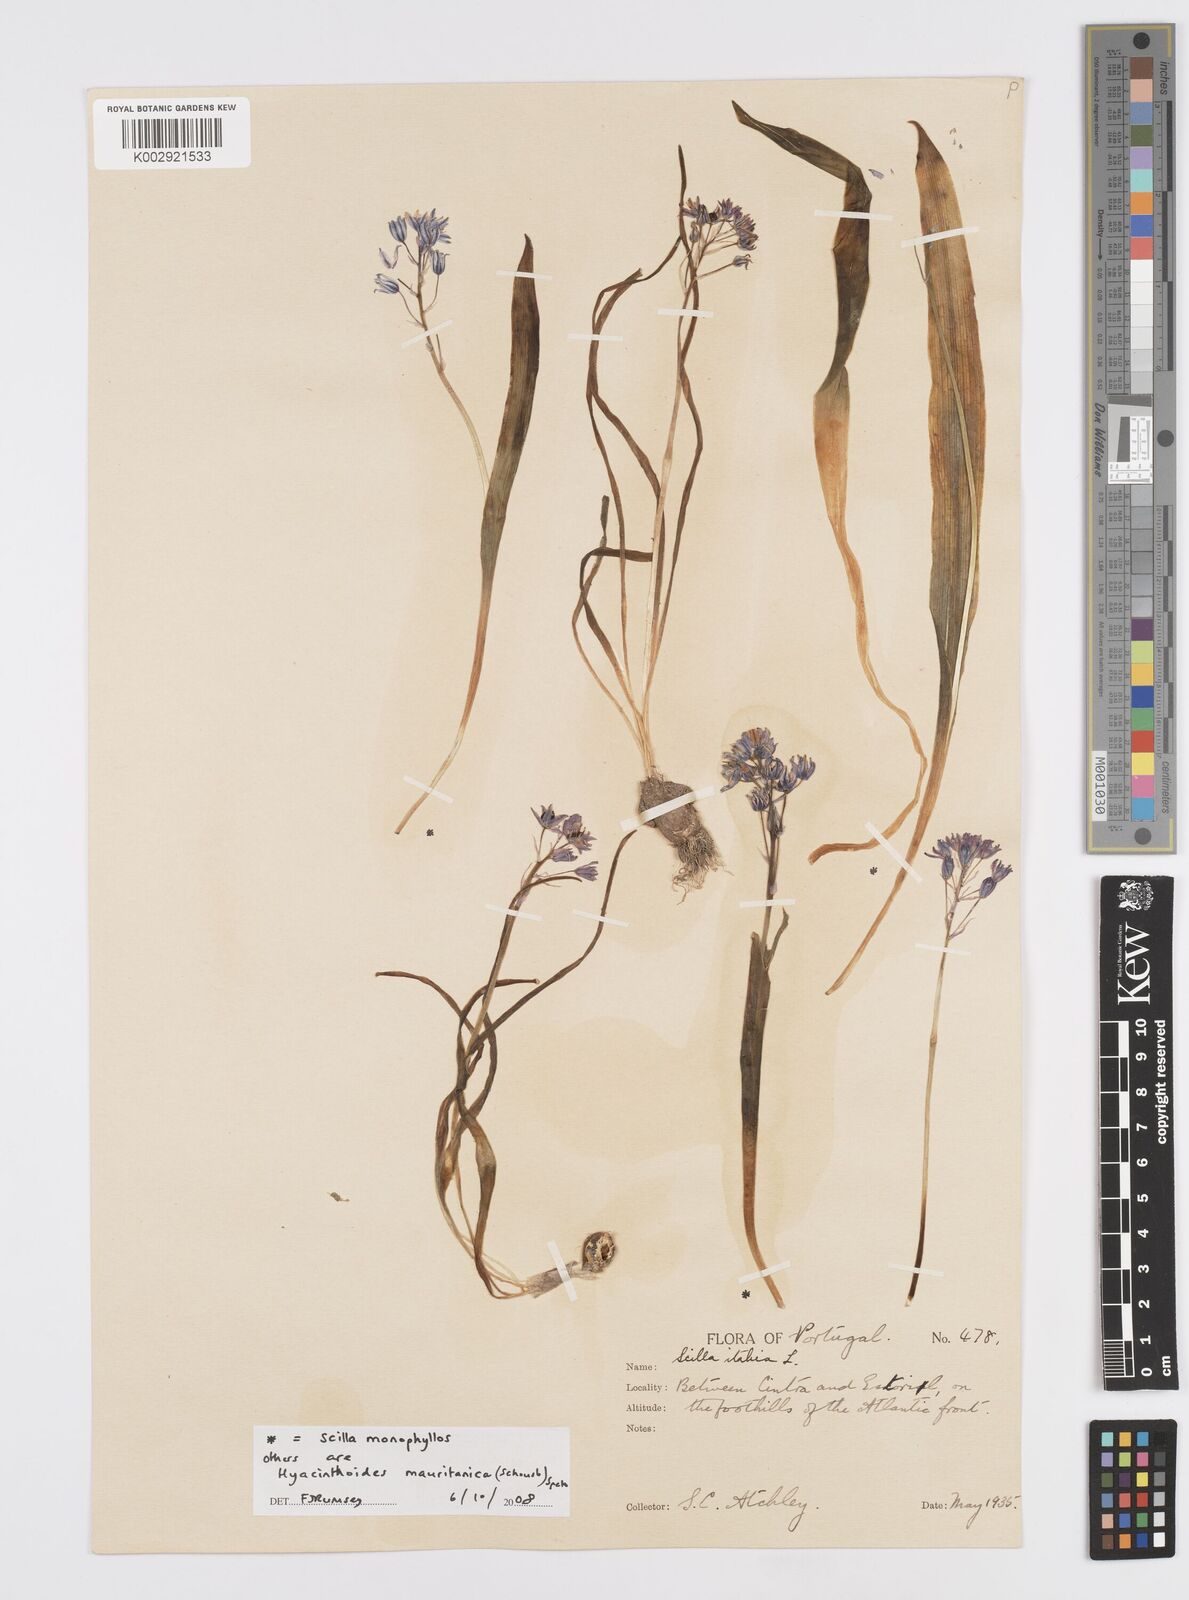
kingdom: Plantae
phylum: Tracheophyta
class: Liliopsida
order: Asparagales
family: Asparagaceae
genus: Hyacinthoides
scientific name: Hyacinthoides mauritanica
